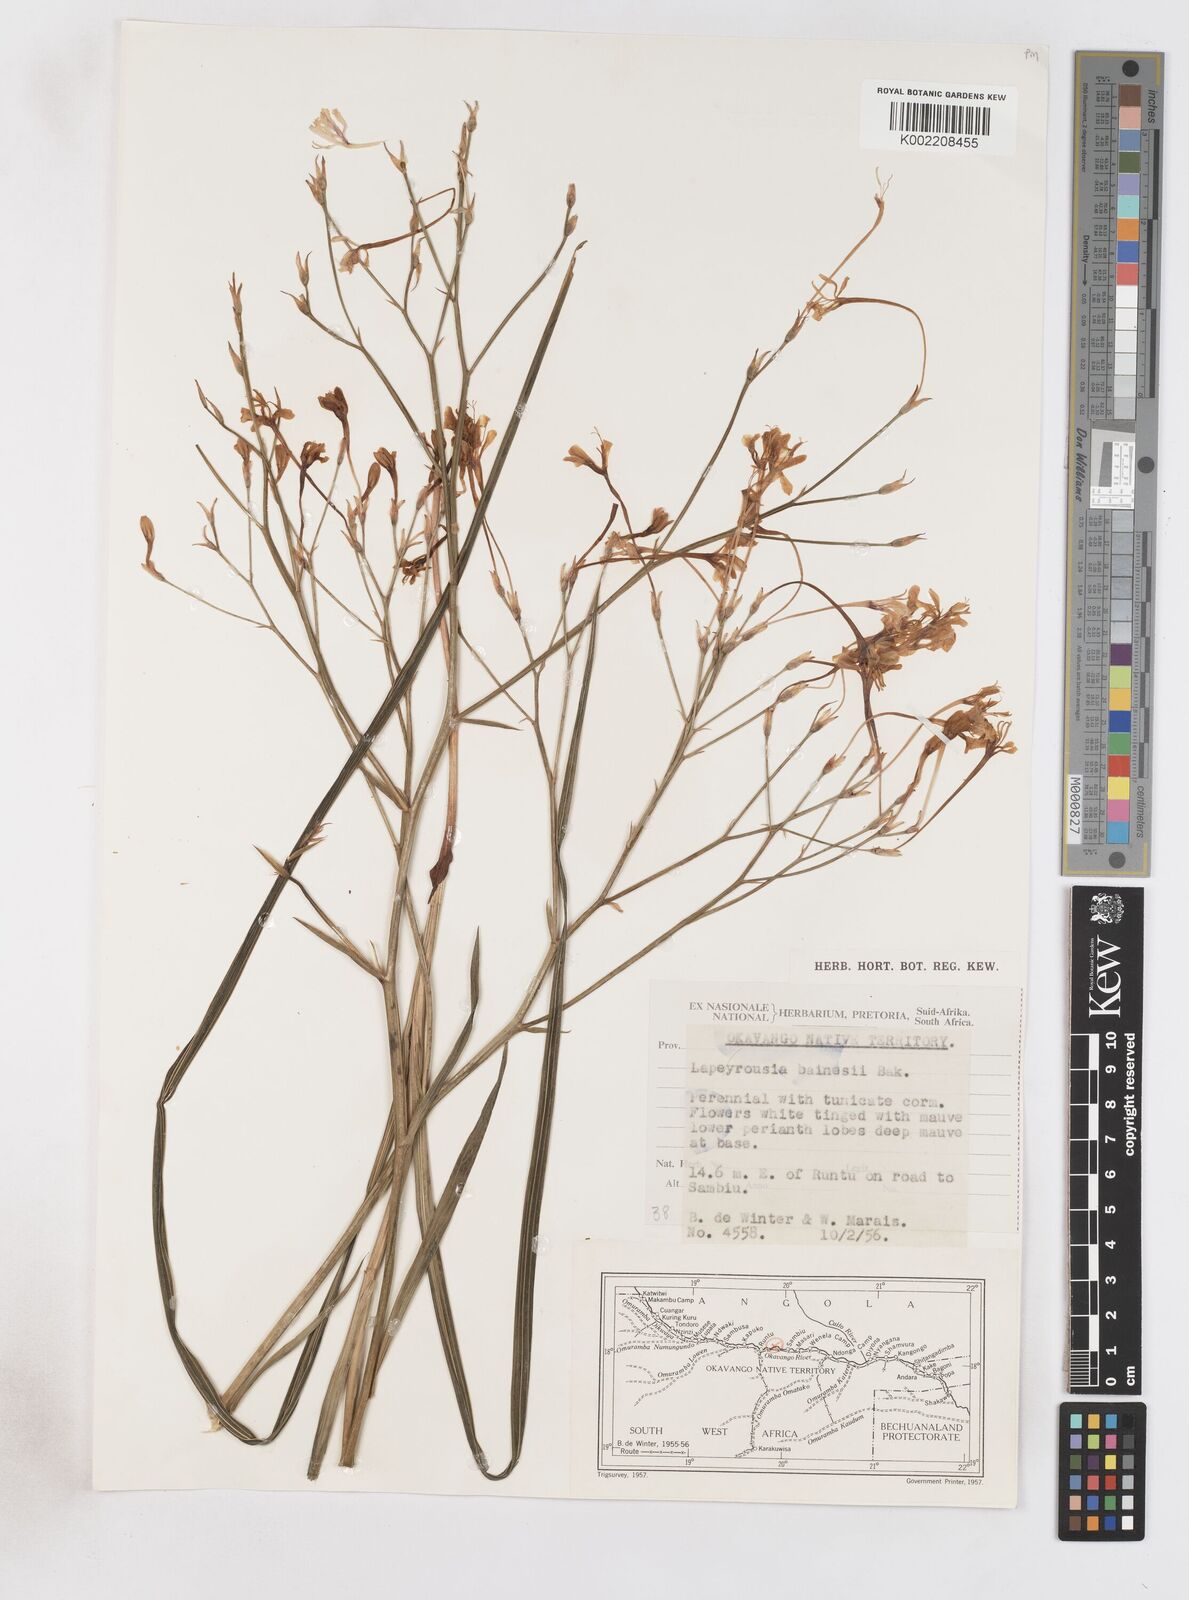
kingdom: Plantae
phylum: Tracheophyta
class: Liliopsida
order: Asparagales
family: Iridaceae
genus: Afrosolen
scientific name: Afrosolen erythranthus
